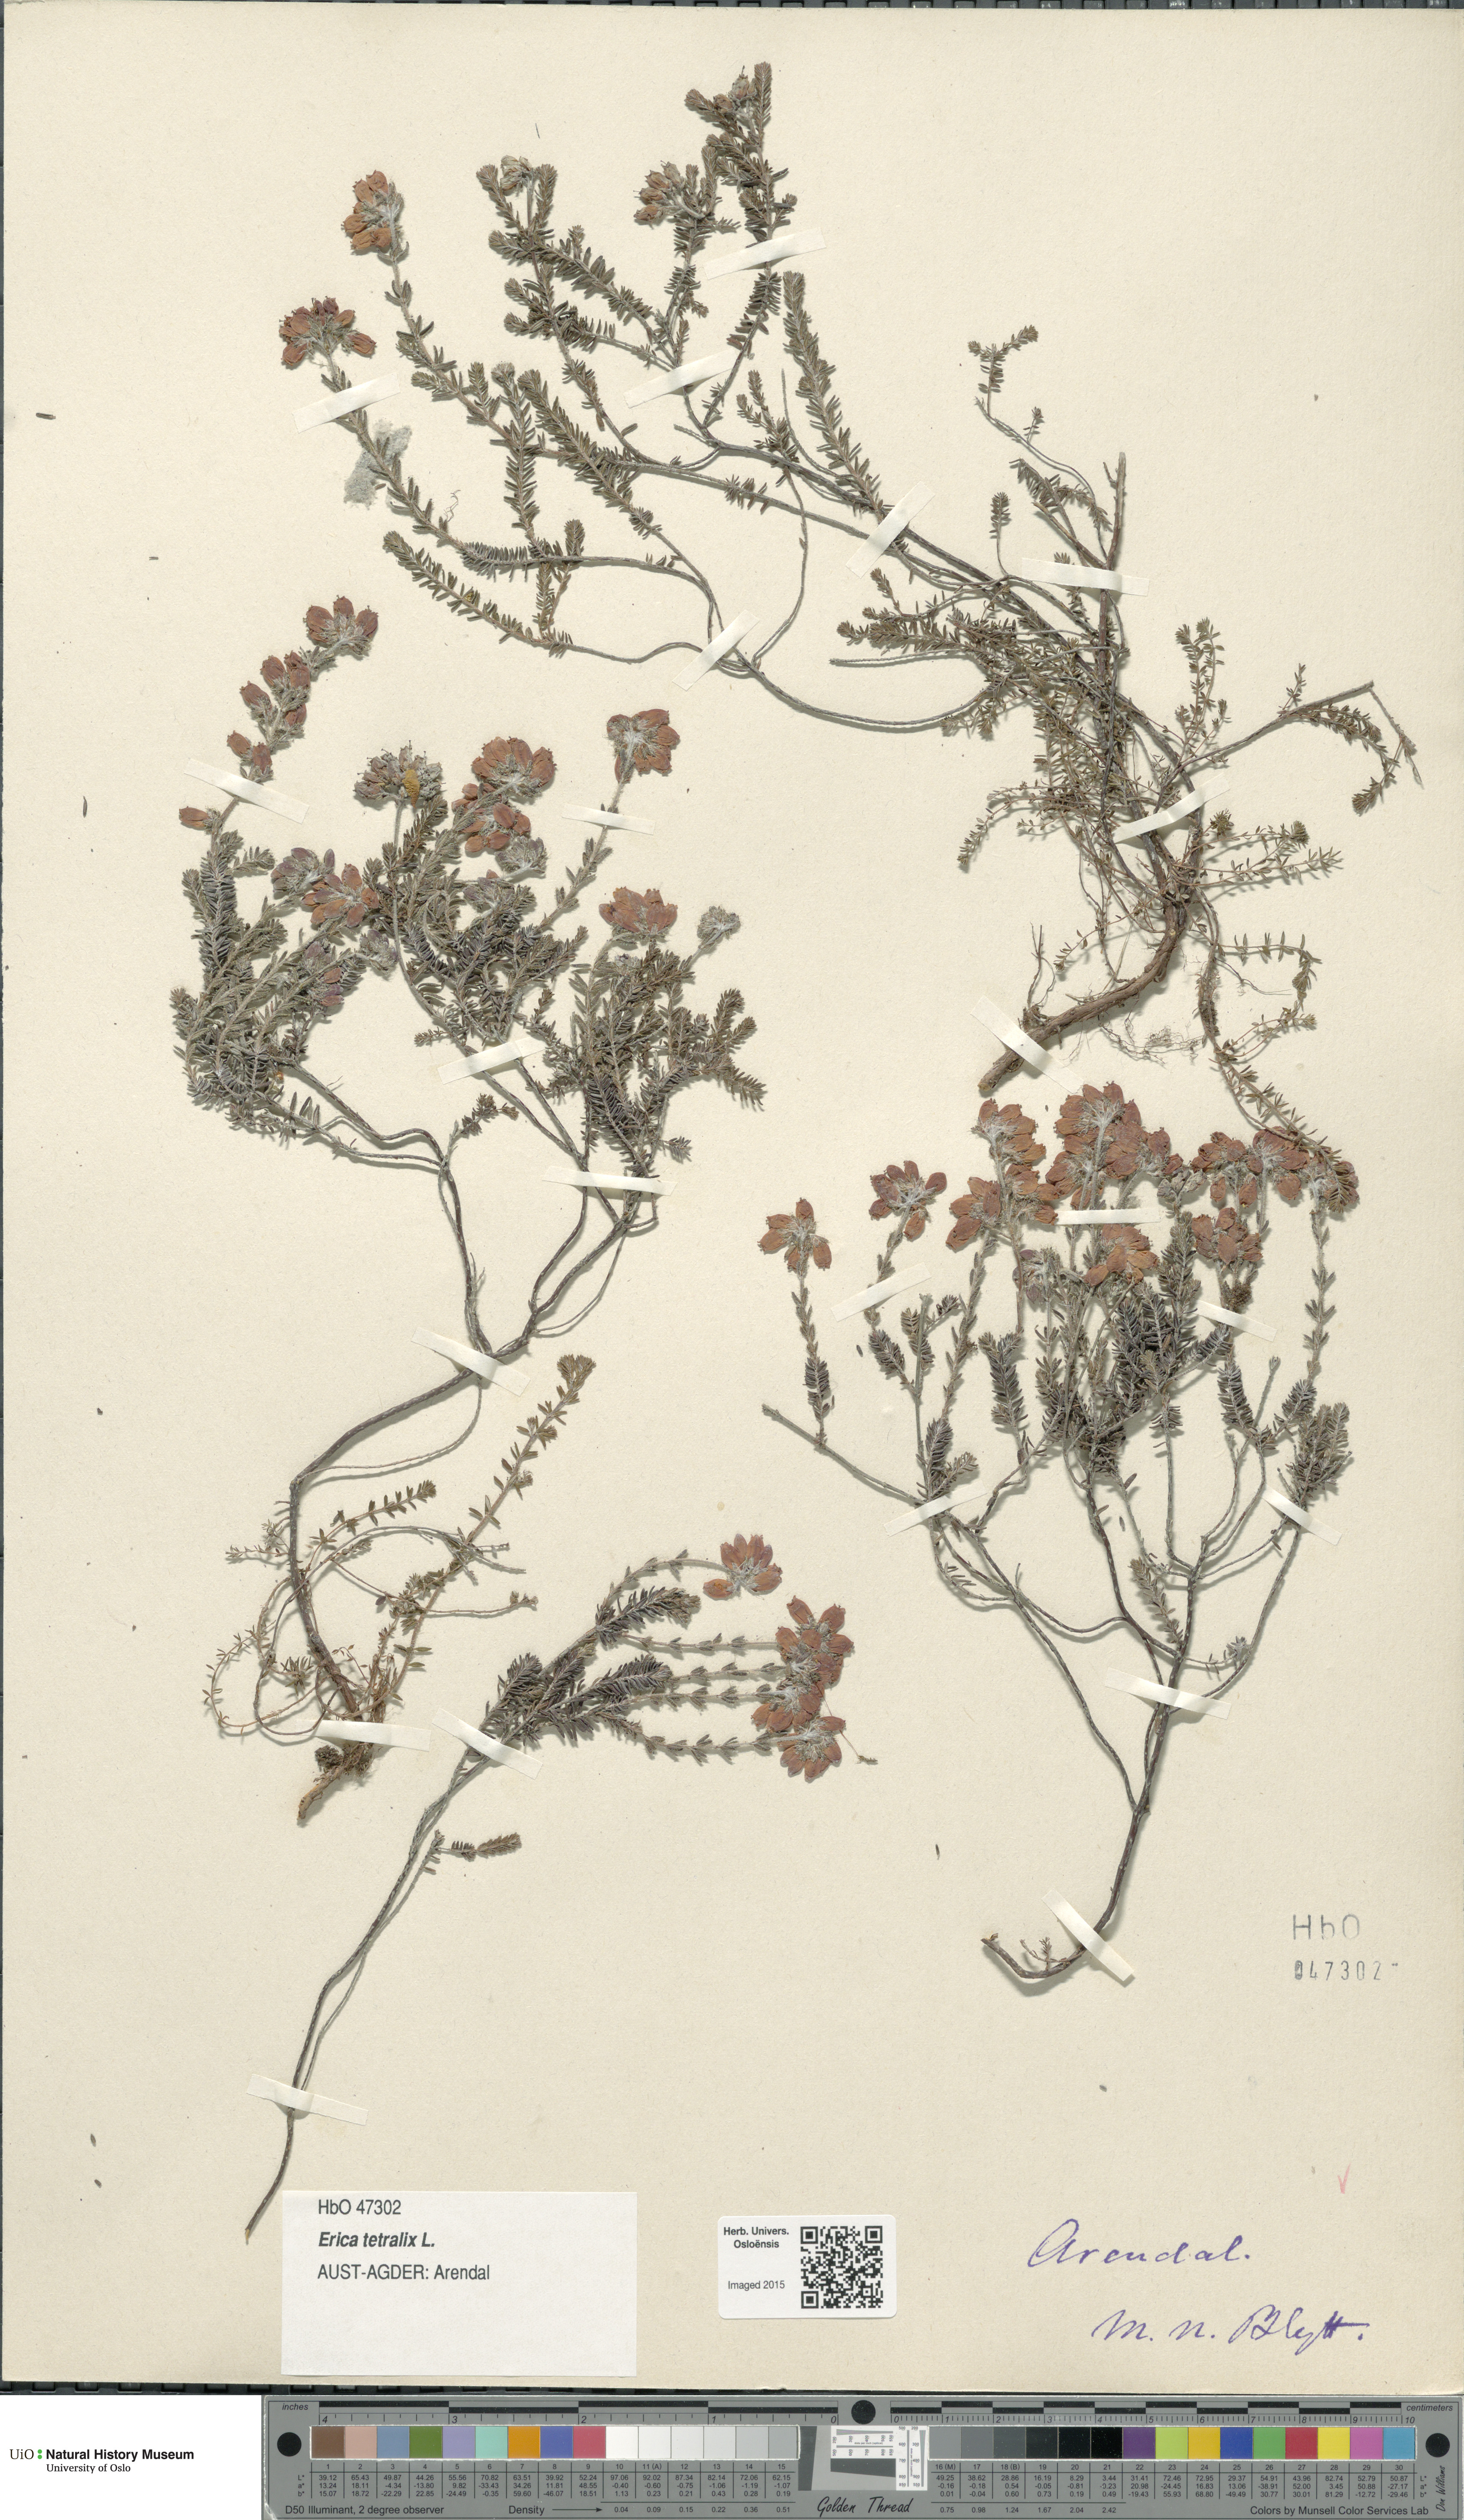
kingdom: Plantae
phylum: Tracheophyta
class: Magnoliopsida
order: Ericales
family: Ericaceae
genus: Erica
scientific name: Erica tetralix
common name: Cross-leaved heath
